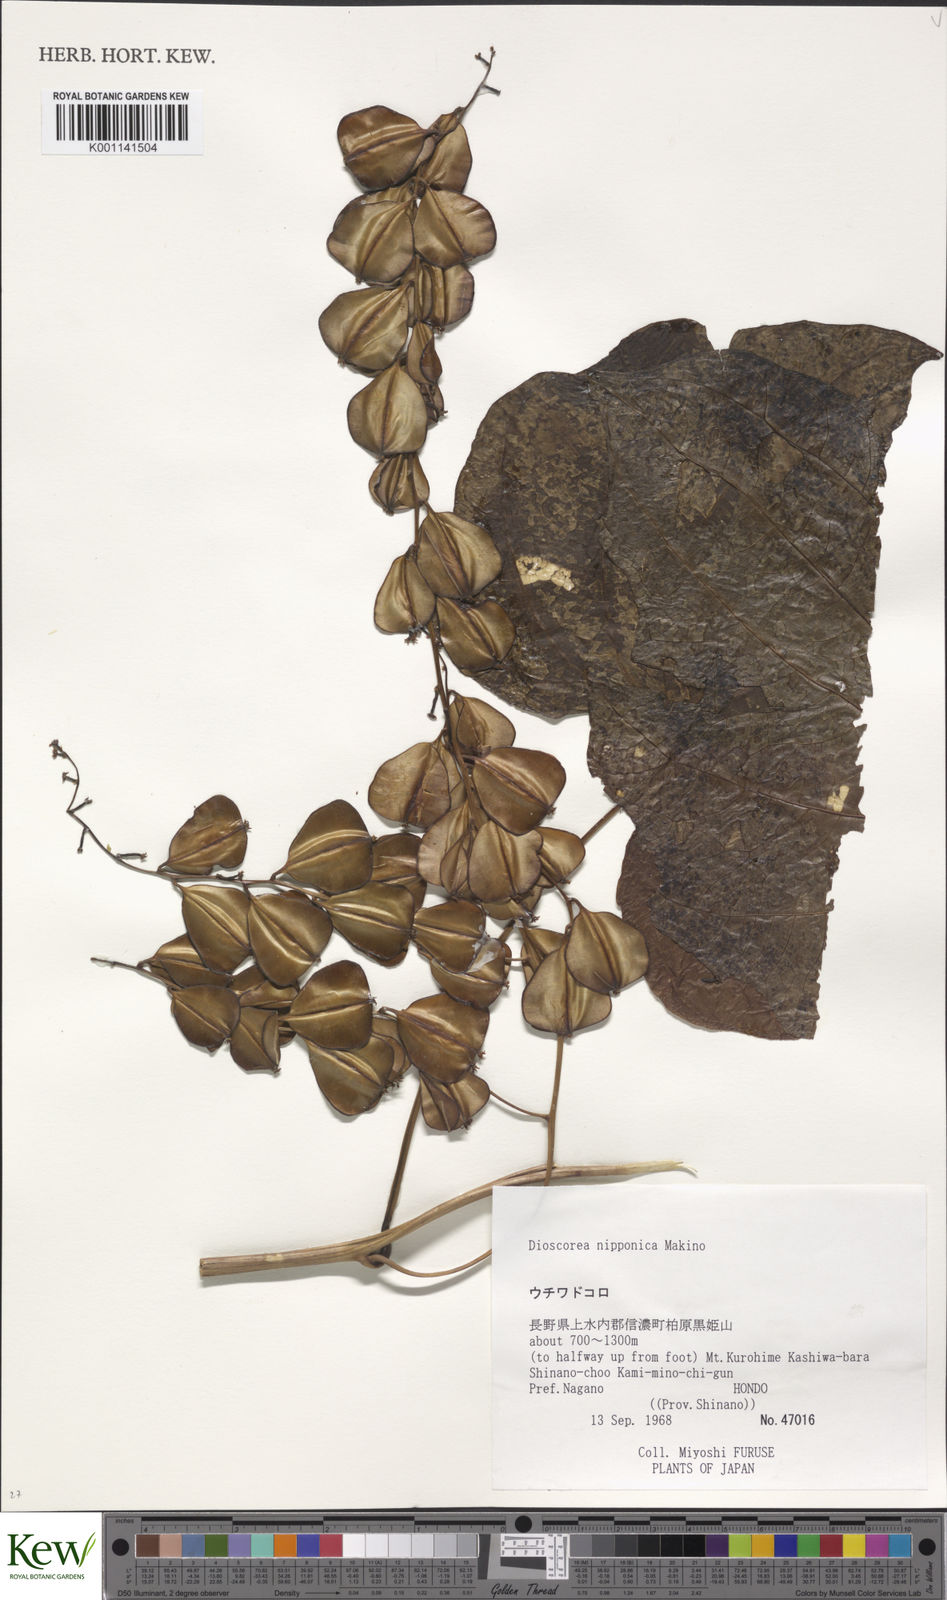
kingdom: Plantae
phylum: Tracheophyta
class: Liliopsida
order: Dioscoreales
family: Dioscoreaceae
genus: Dioscorea
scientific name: Dioscorea nipponica
